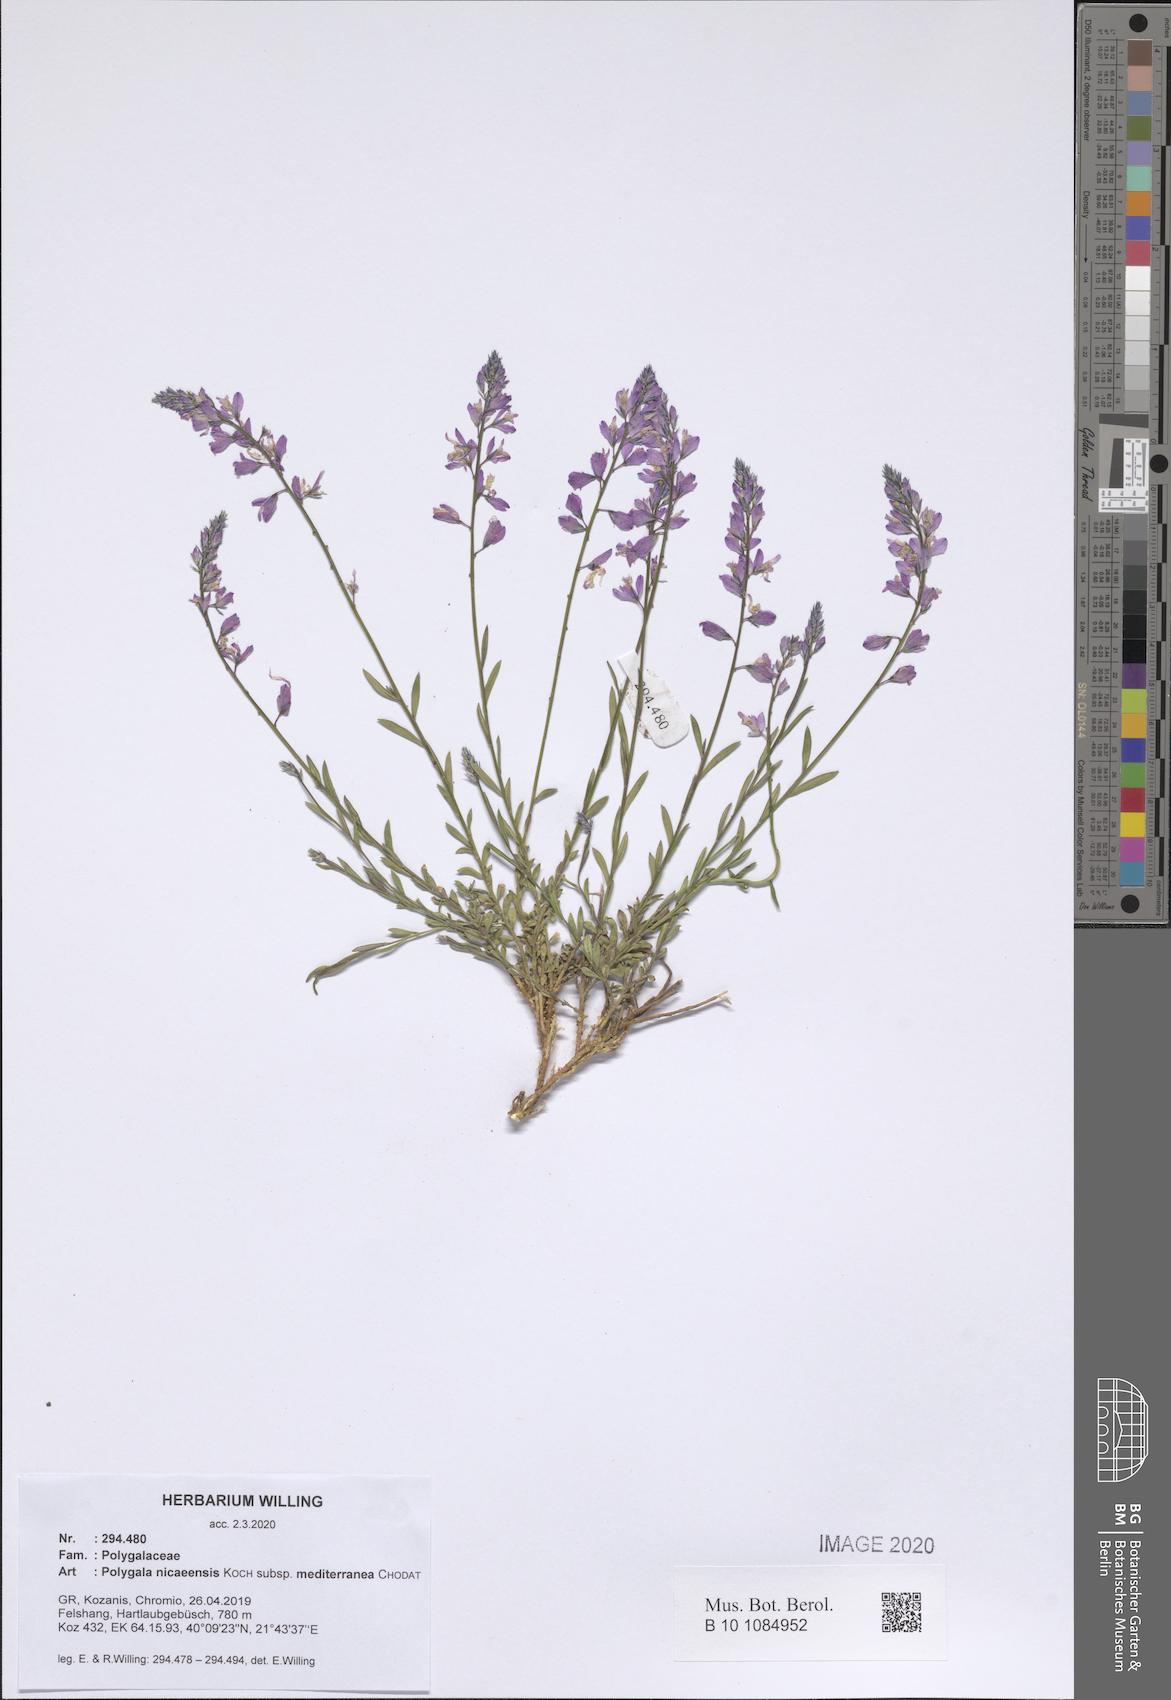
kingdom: Plantae
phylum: Tracheophyta
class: Magnoliopsida
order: Fabales
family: Polygalaceae
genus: Polygala
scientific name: Polygala nicaeensis
